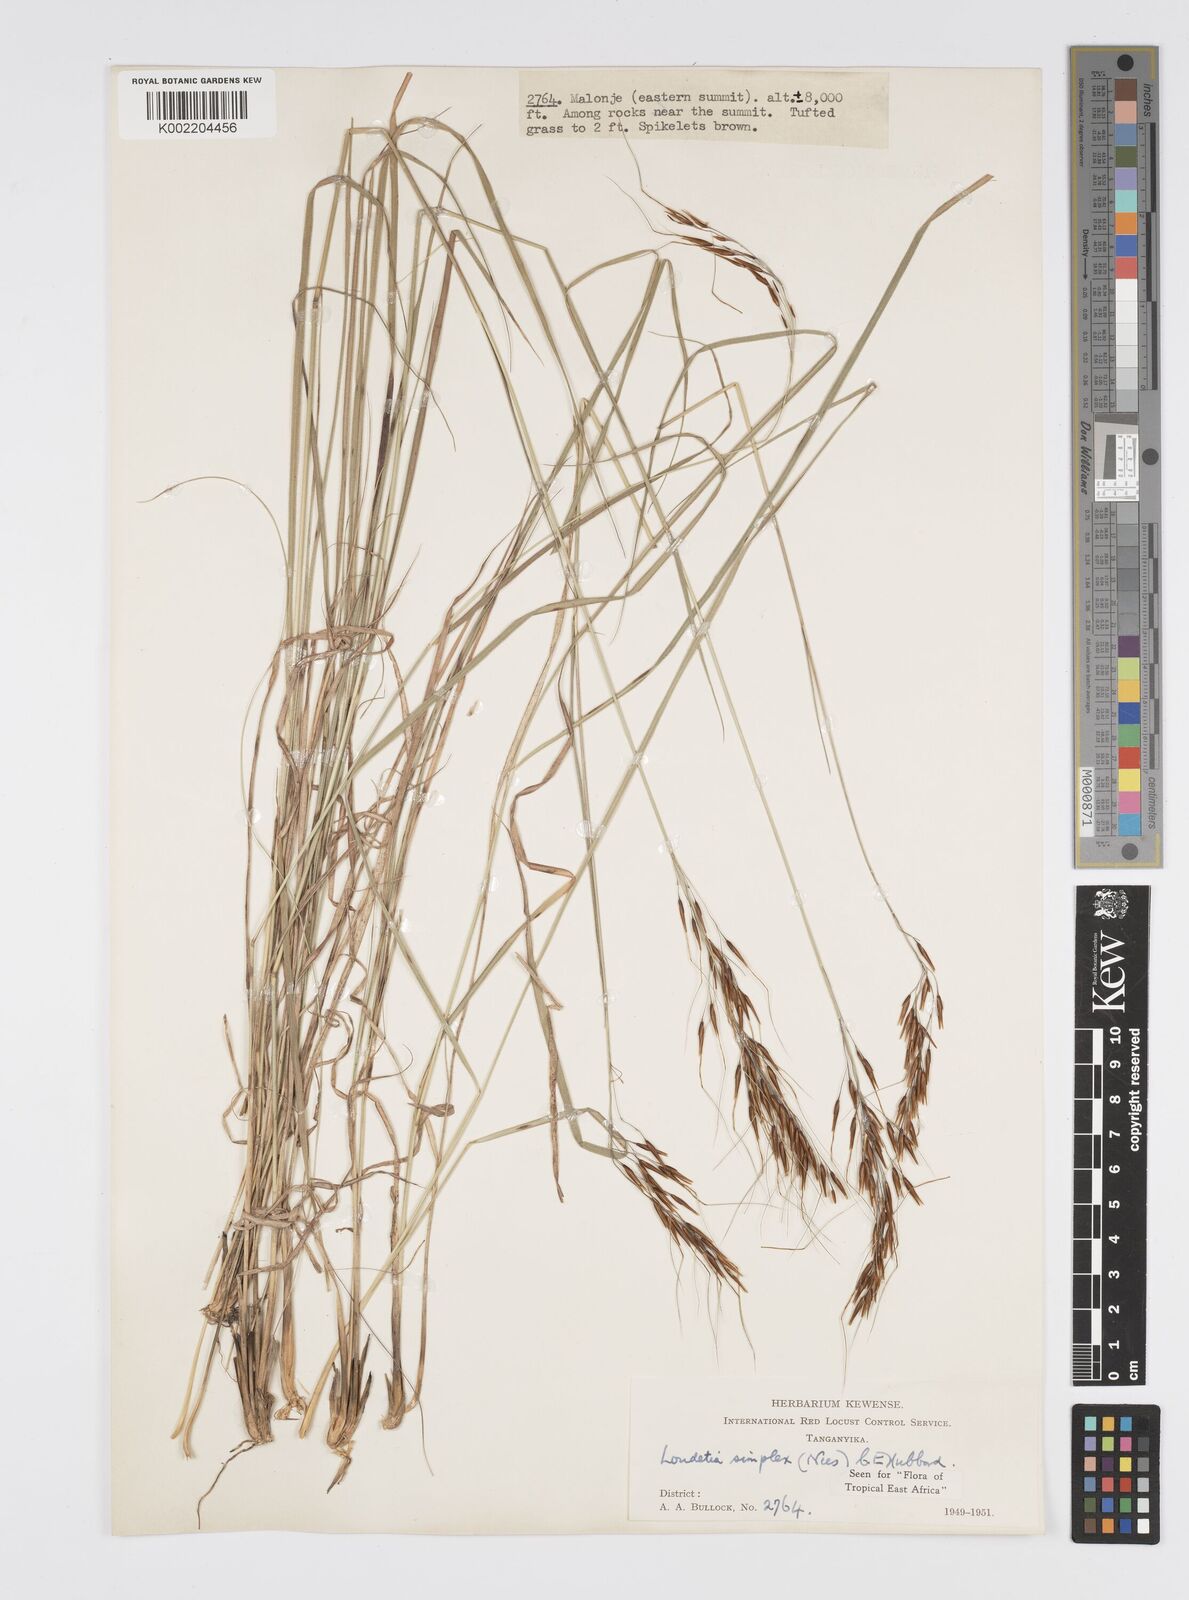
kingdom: Plantae
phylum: Tracheophyta
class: Liliopsida
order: Poales
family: Poaceae
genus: Loudetia
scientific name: Loudetia simplex
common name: Common russet grass
